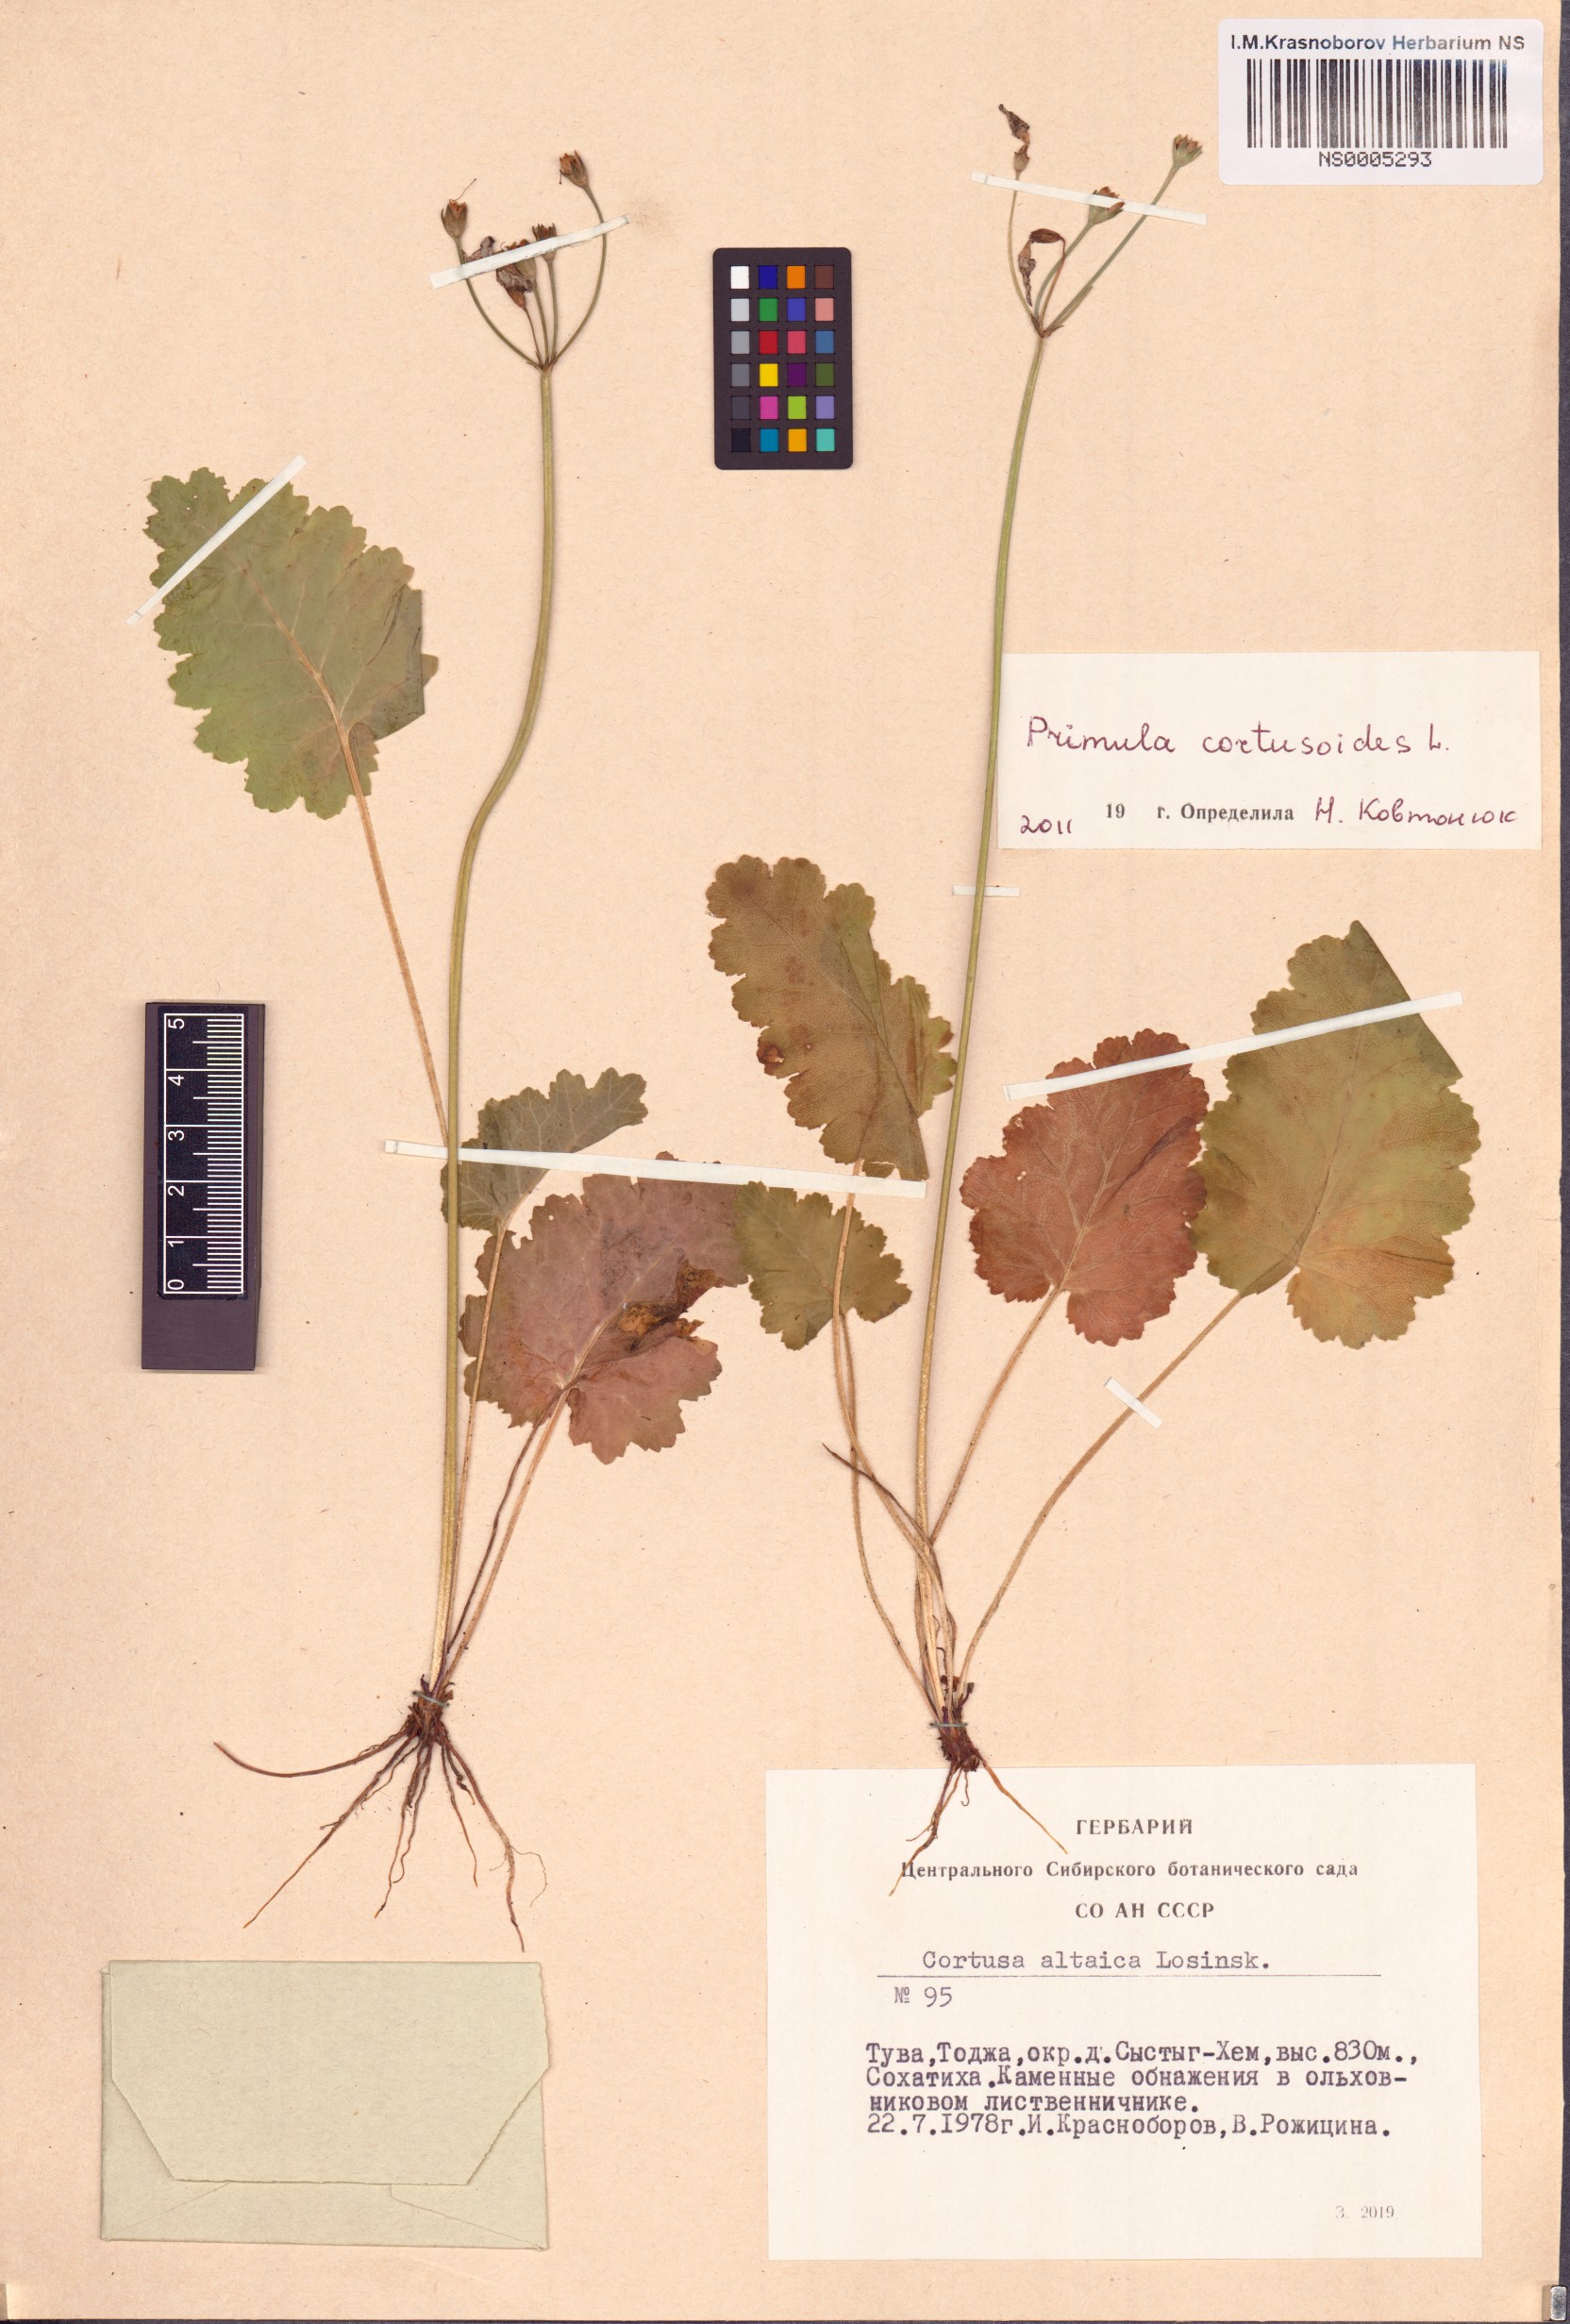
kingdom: Plantae
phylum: Tracheophyta
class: Magnoliopsida
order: Ericales
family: Primulaceae
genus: Primula
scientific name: Primula cortusoides
